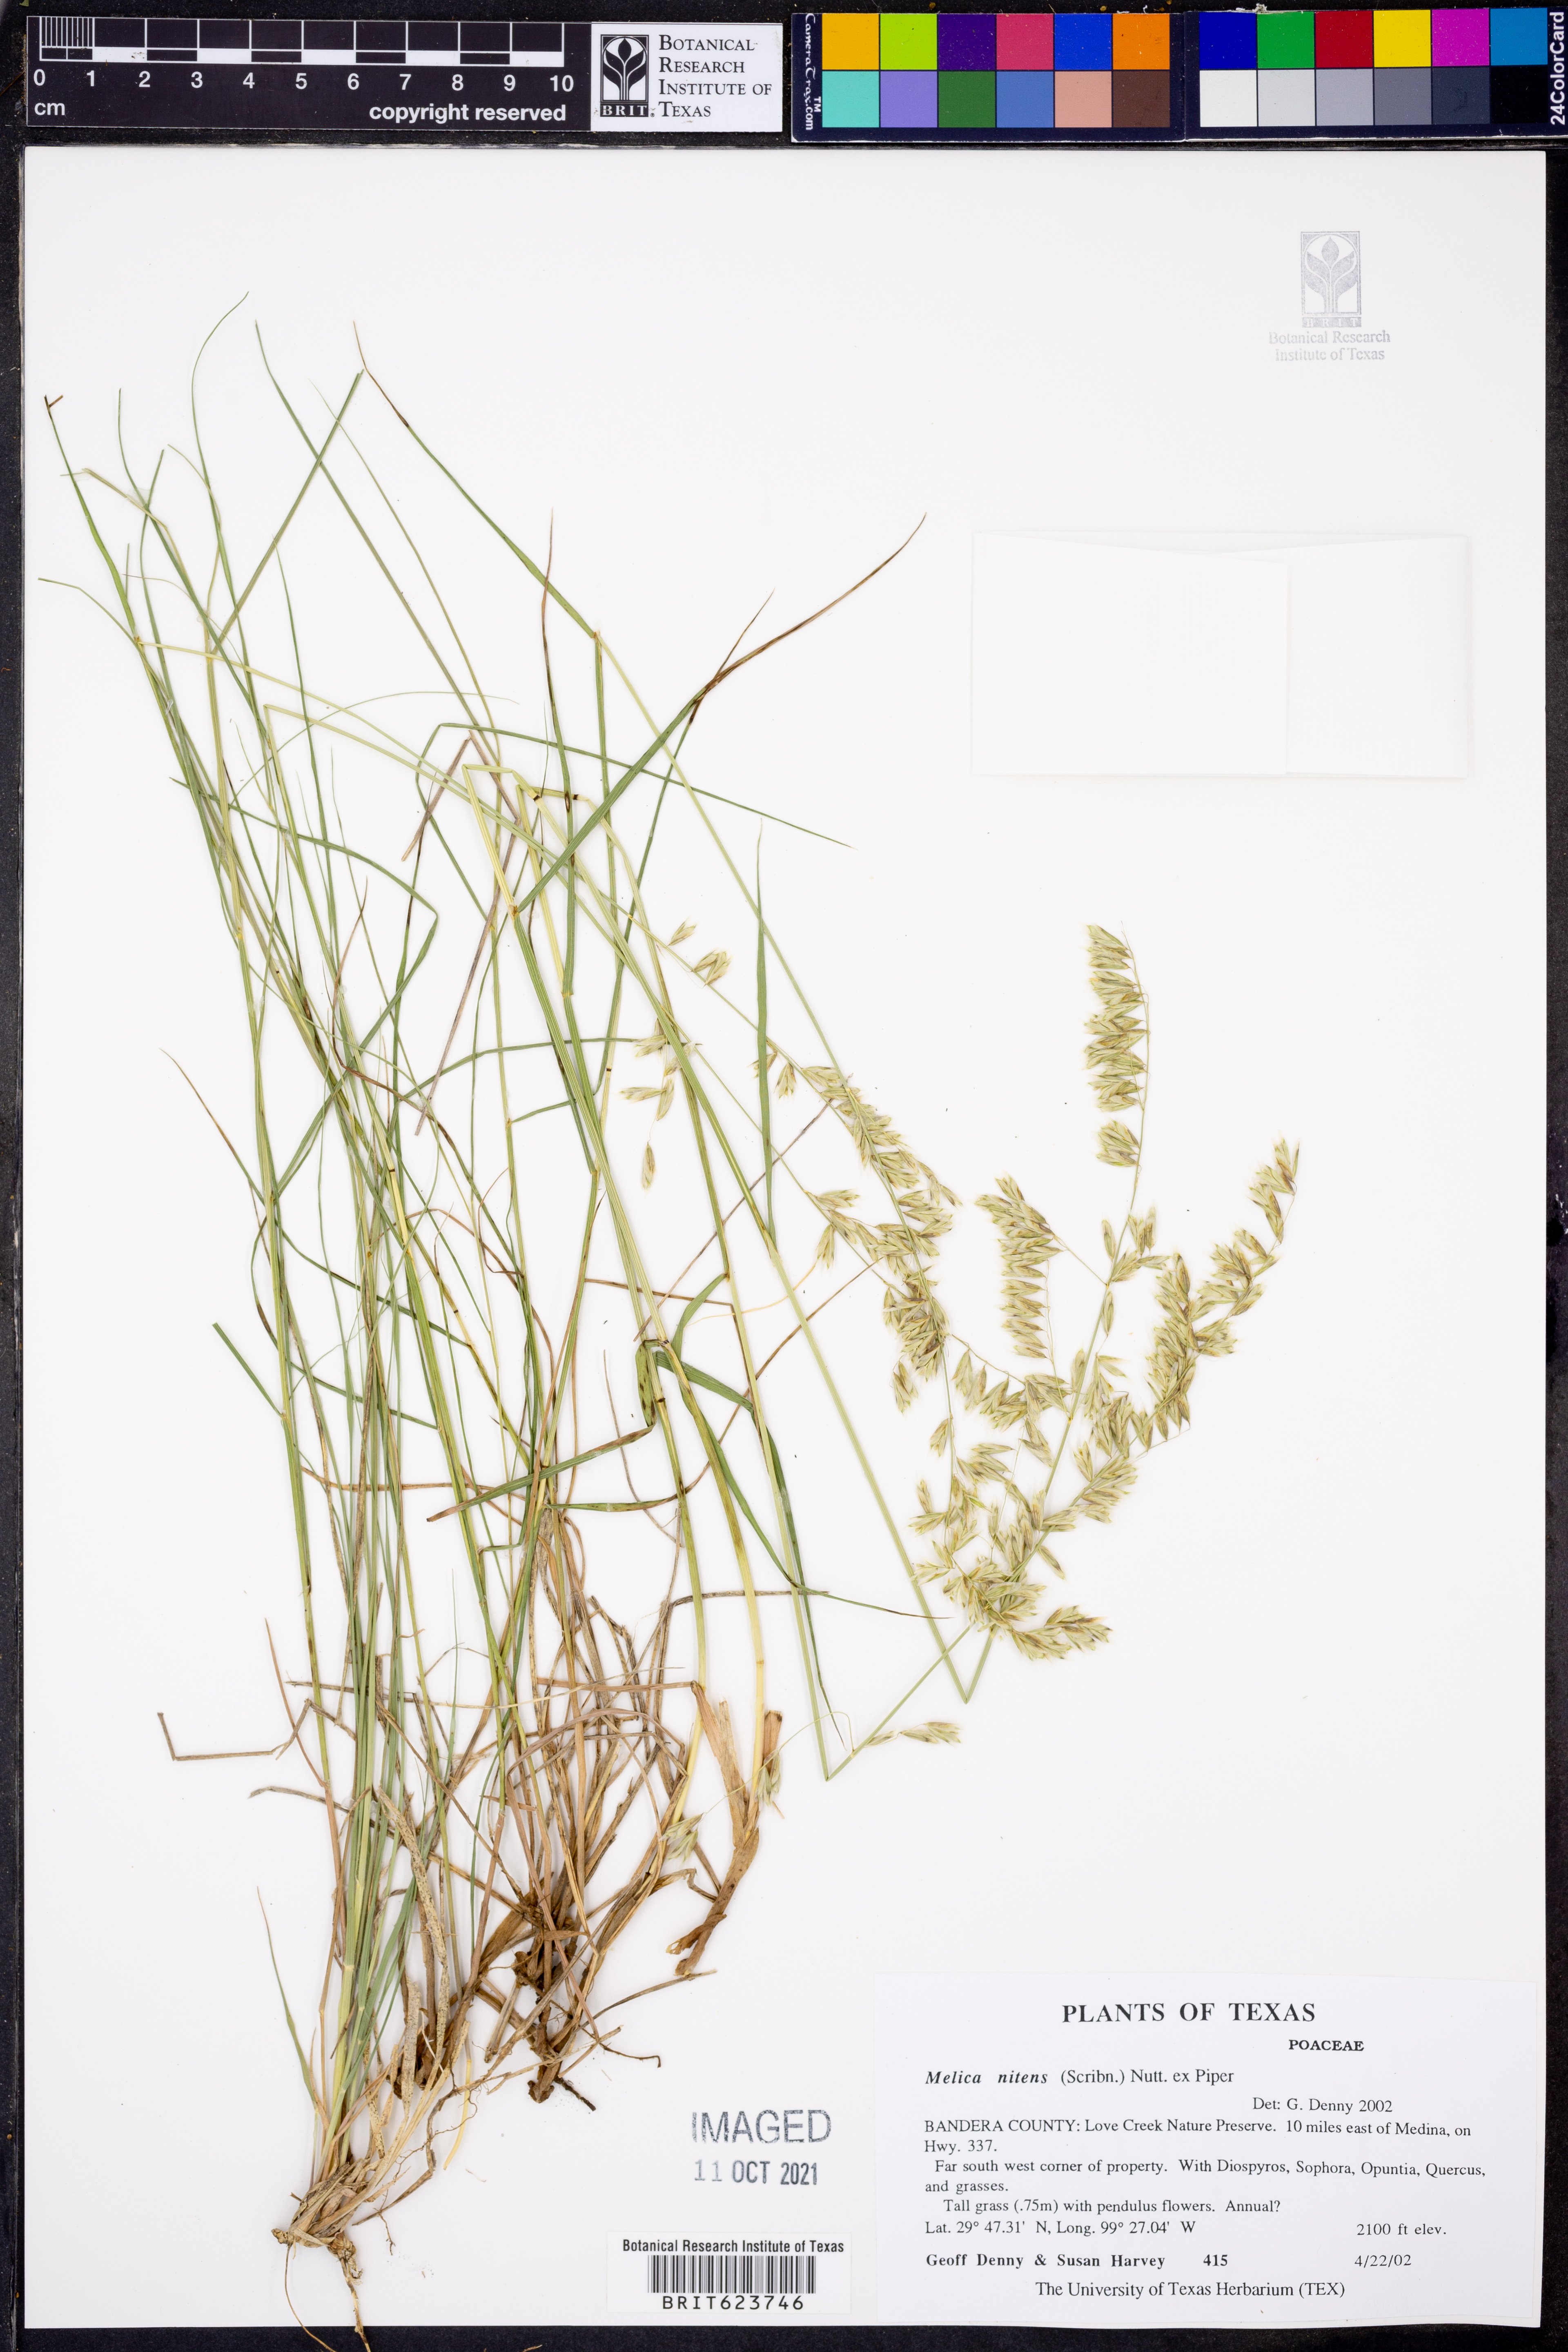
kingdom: Plantae
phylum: Tracheophyta
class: Liliopsida
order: Poales
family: Poaceae
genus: Melica
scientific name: Melica nitens
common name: Three-flower melic
